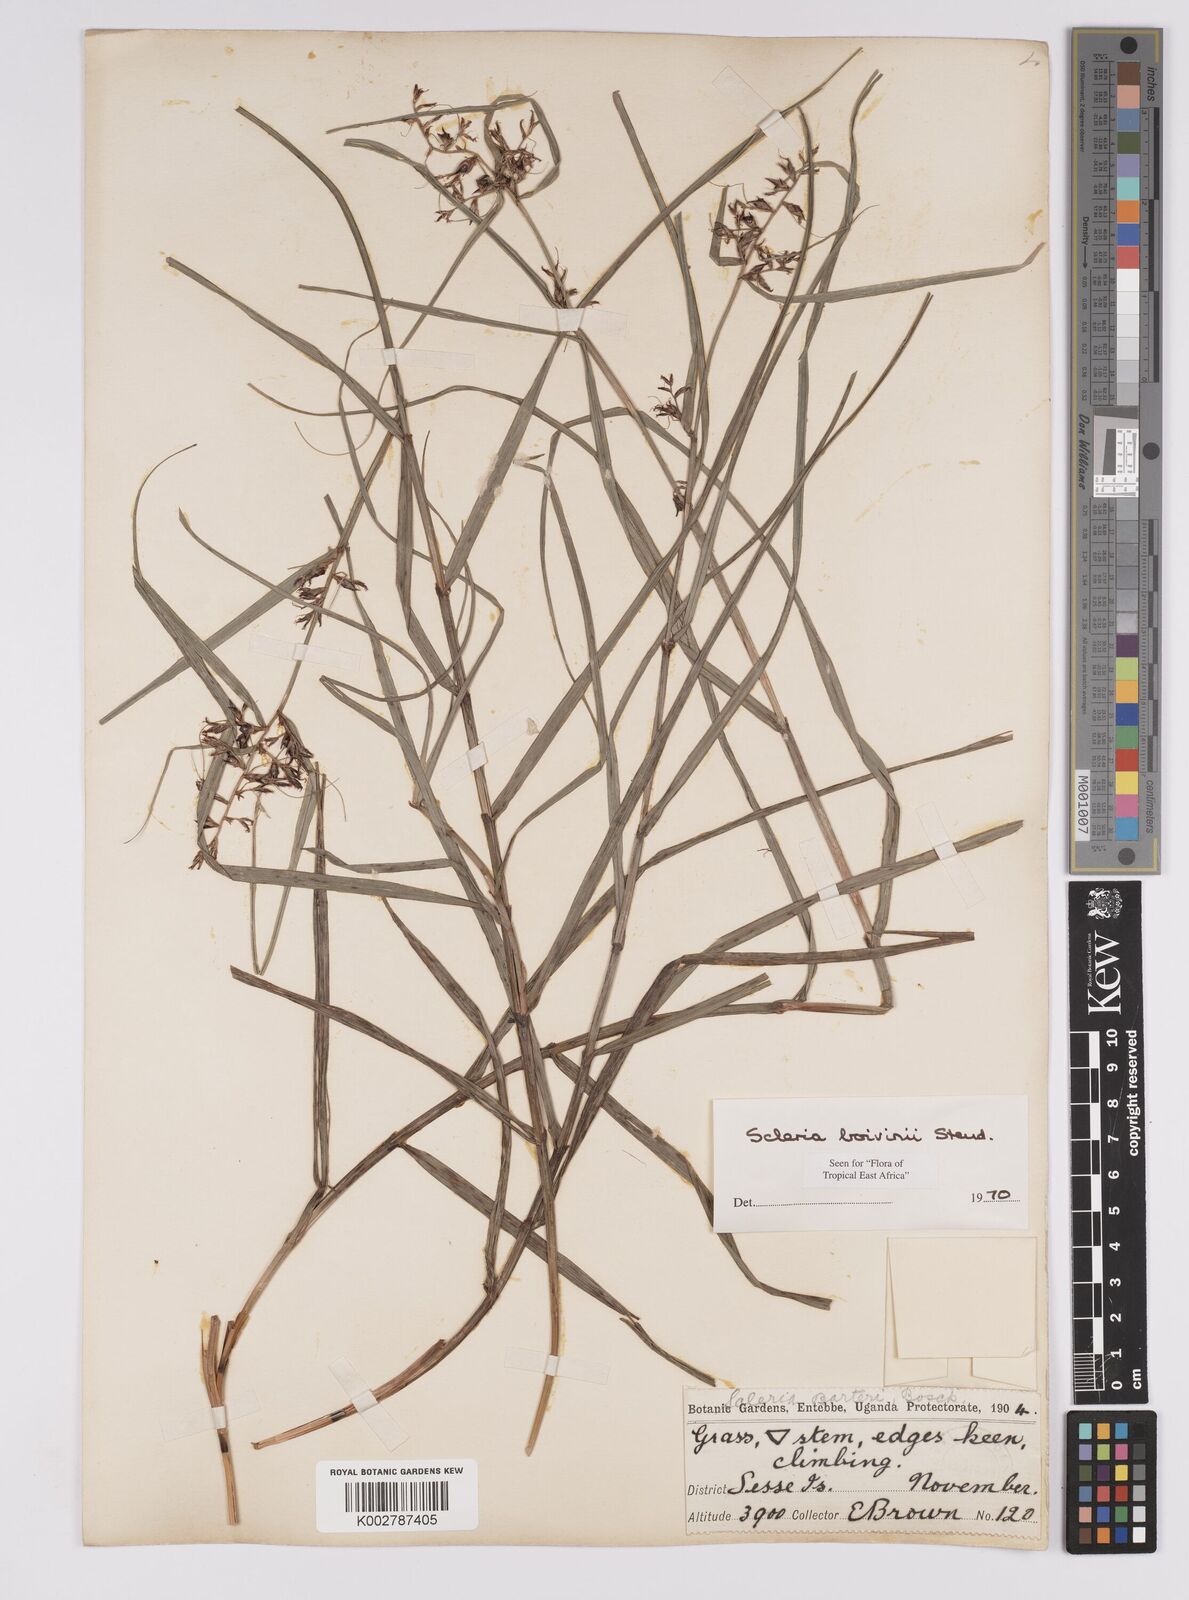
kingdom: Plantae
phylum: Tracheophyta
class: Liliopsida
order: Poales
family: Cyperaceae
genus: Scleria
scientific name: Scleria iostephana
